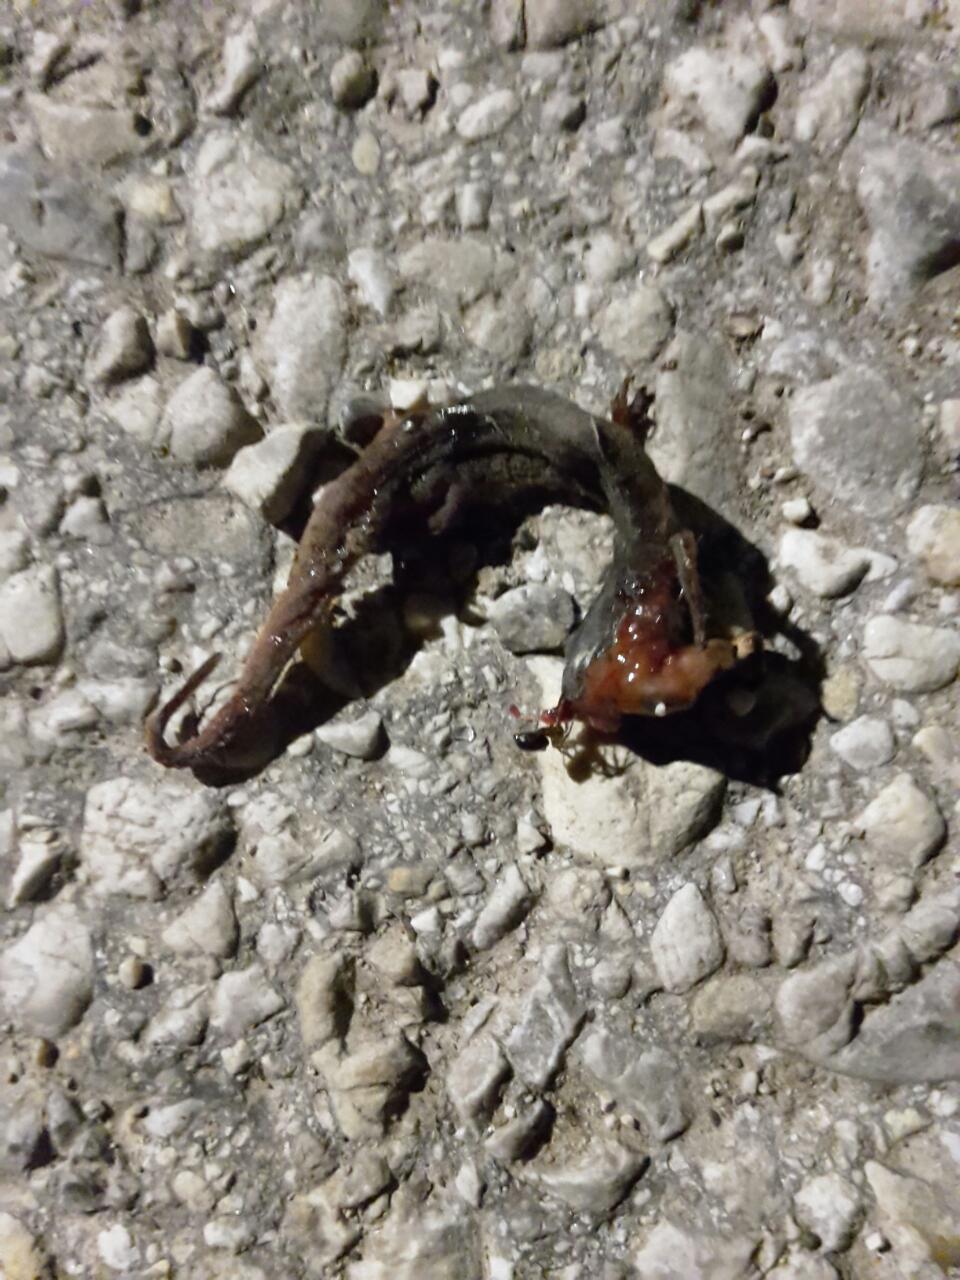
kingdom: Animalia
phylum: Chordata
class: Amphibia
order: Caudata
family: Salamandridae
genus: Lissotriton
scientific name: Lissotriton vulgaris
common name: Smooth newt
